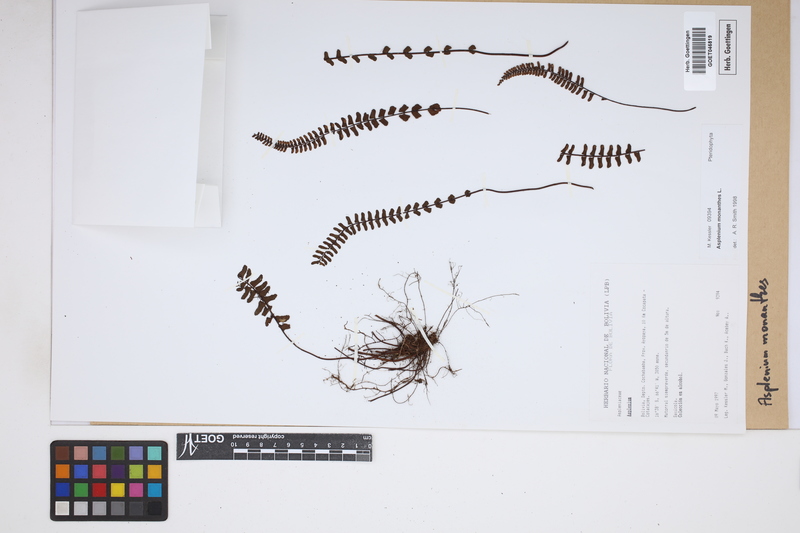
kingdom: Plantae
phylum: Tracheophyta
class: Polypodiopsida
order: Polypodiales
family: Aspleniaceae
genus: Asplenium
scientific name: Asplenium monanthes
